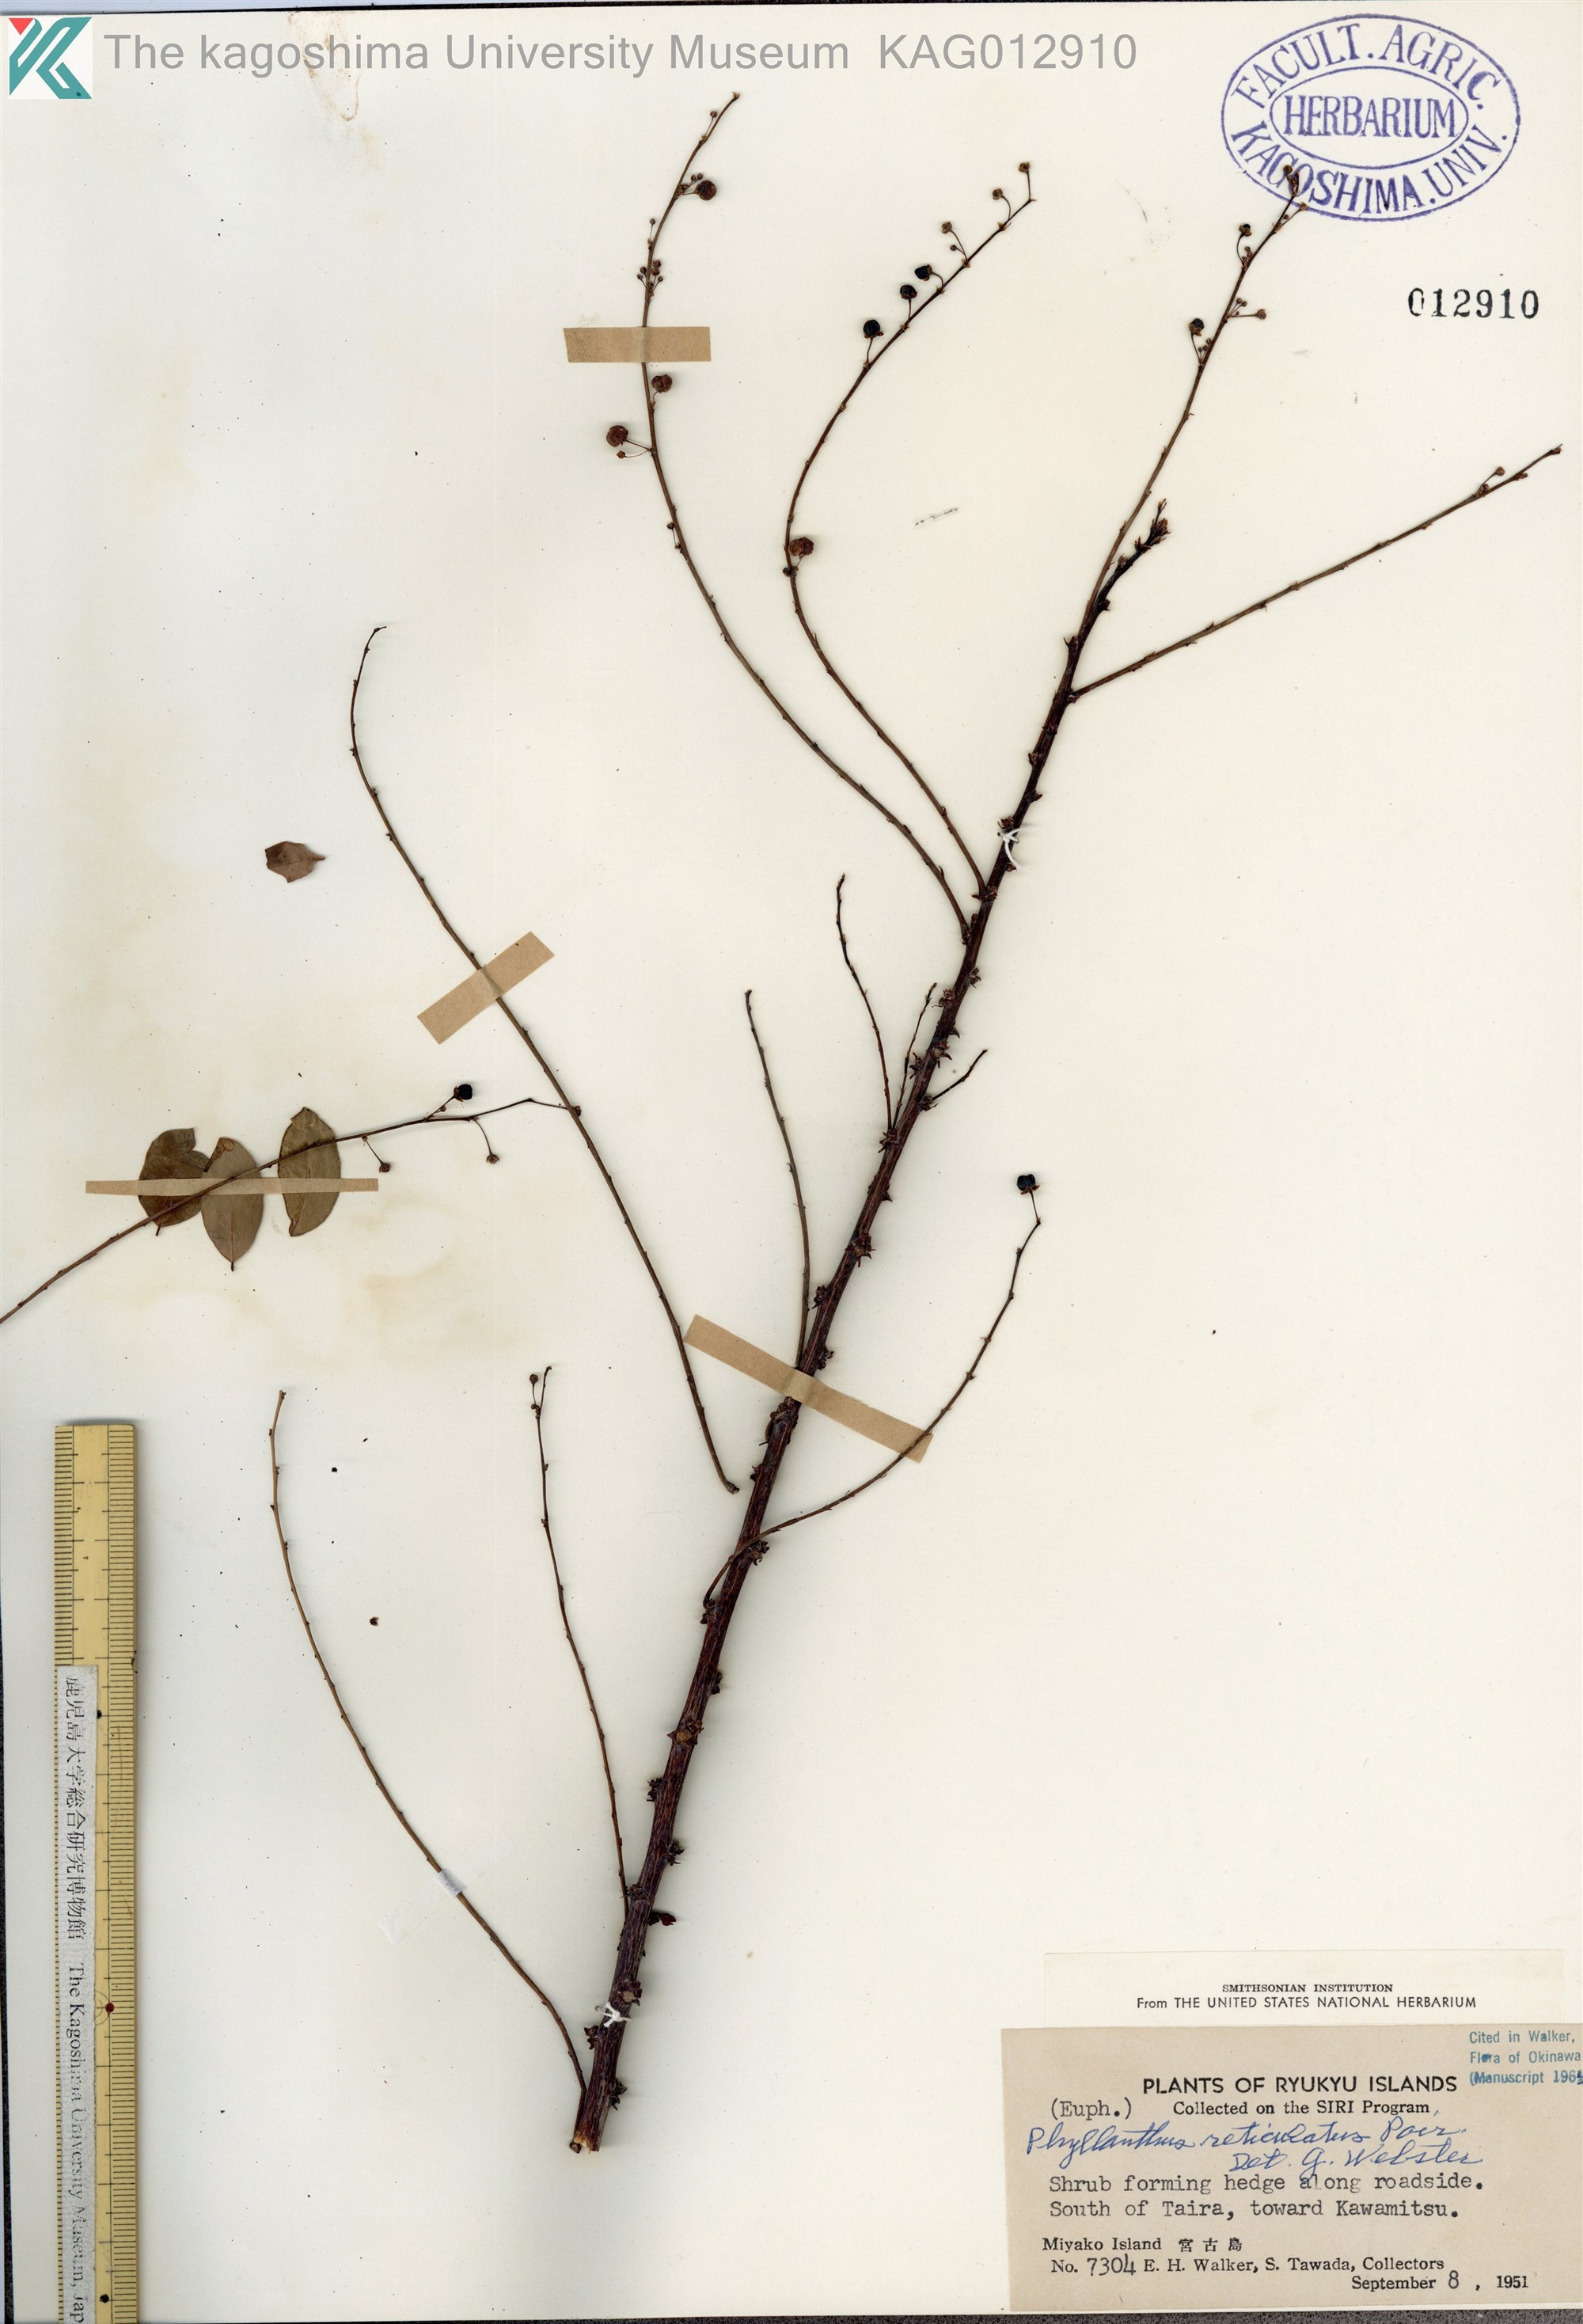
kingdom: Plantae
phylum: Tracheophyta
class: Magnoliopsida
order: Malpighiales
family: Phyllanthaceae
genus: Phyllanthus
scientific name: Phyllanthus reticulatus
